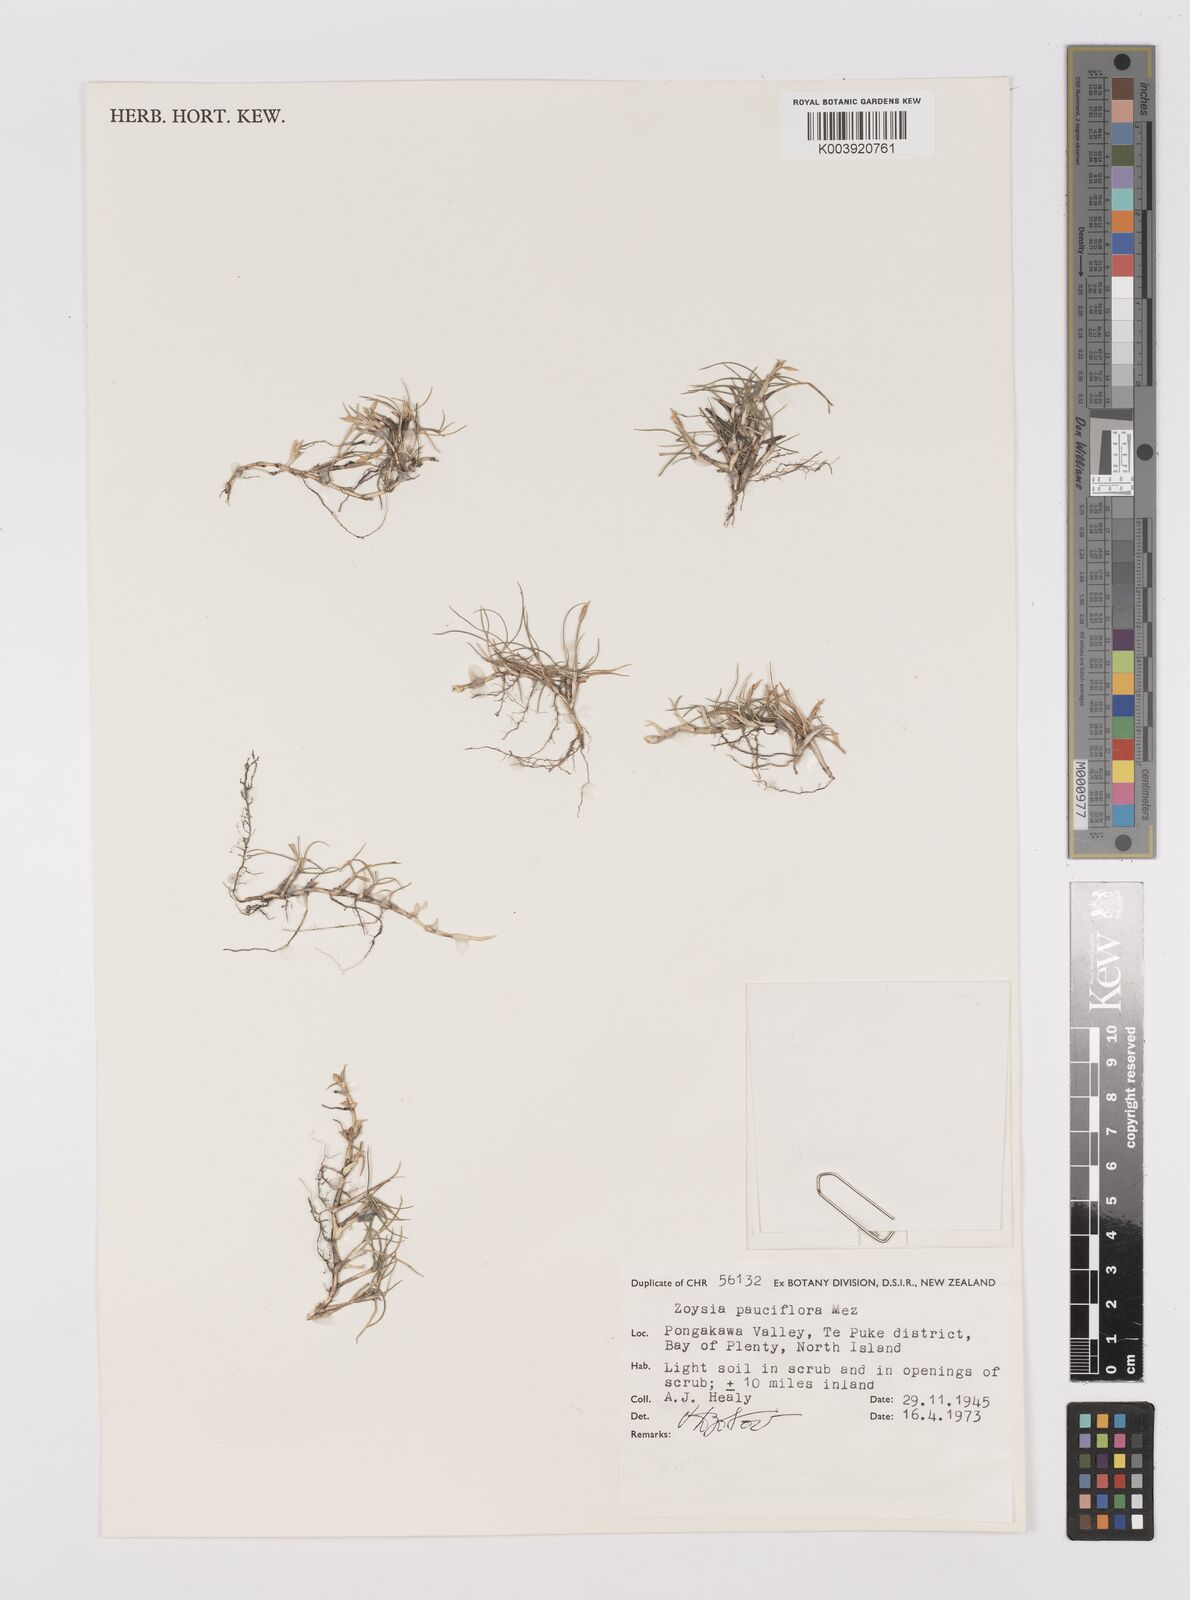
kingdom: Plantae
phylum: Tracheophyta
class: Liliopsida
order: Poales
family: Poaceae
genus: Zoysia
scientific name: Zoysia pauciflora
